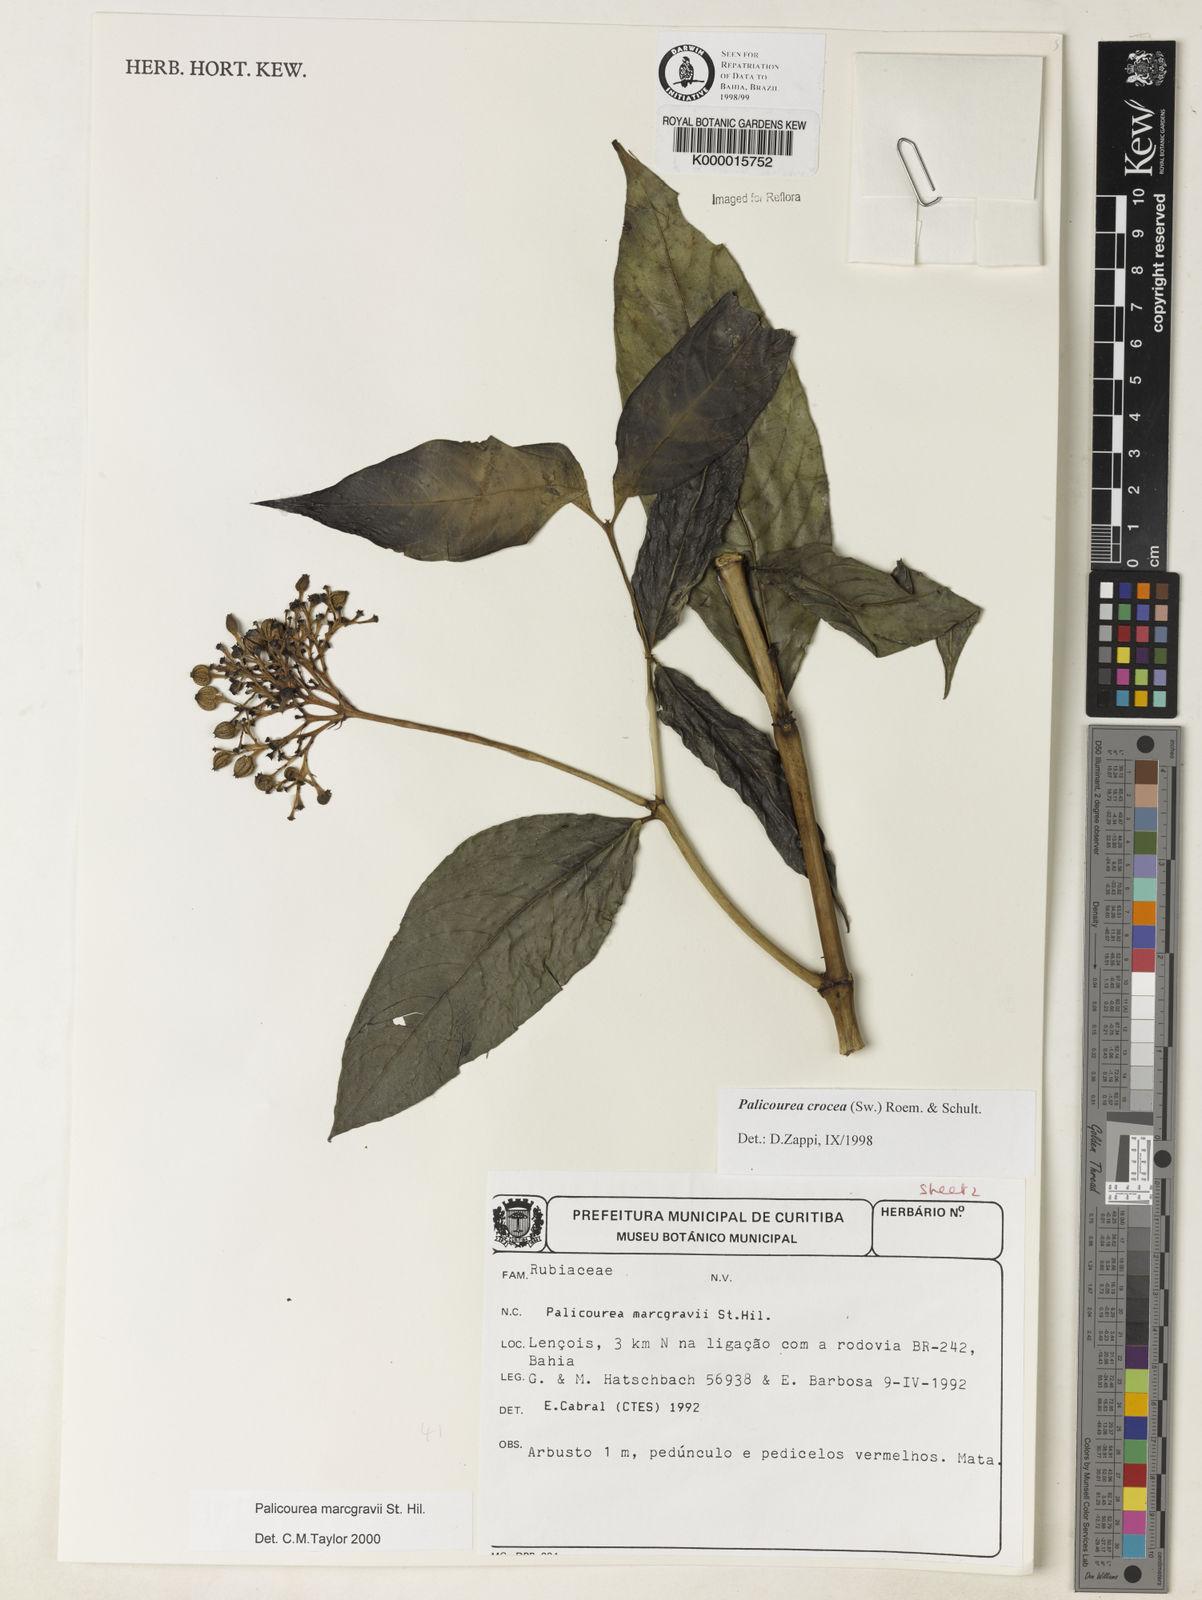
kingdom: Plantae
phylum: Tracheophyta
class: Magnoliopsida
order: Gentianales
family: Rubiaceae
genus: Palicourea
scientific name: Palicourea blanchetiana
